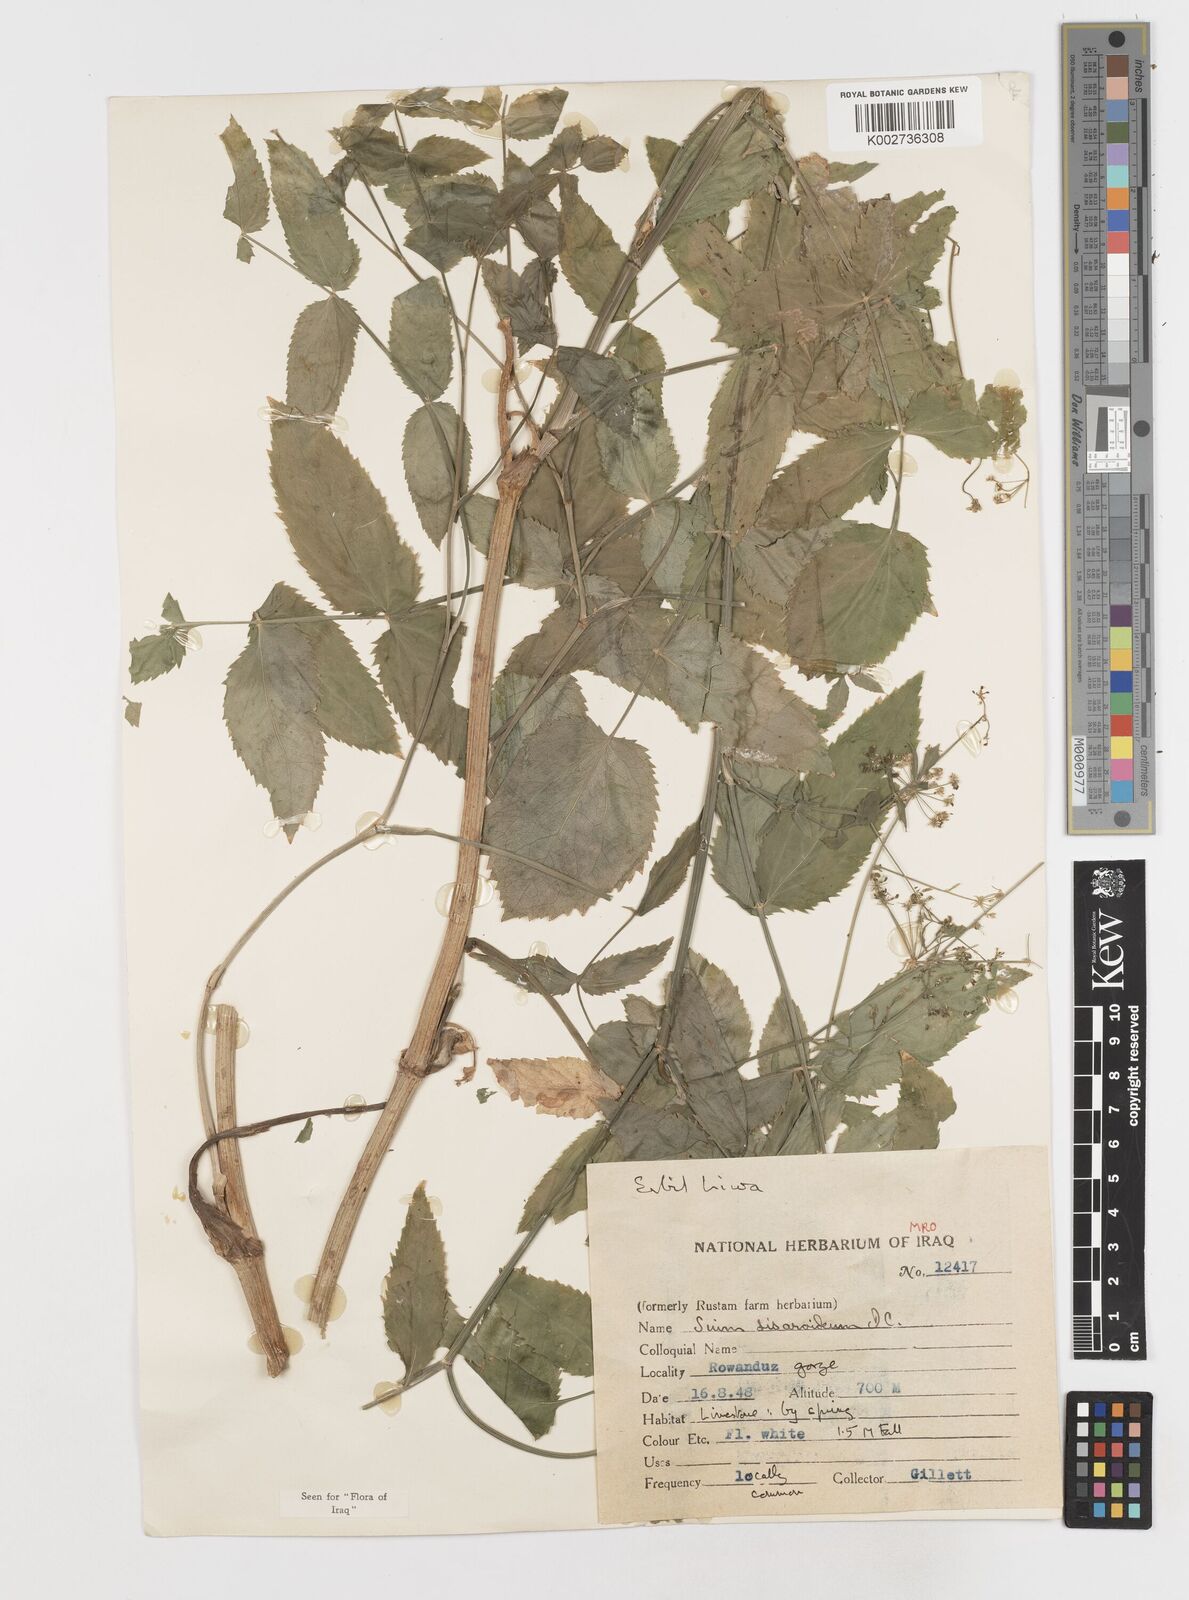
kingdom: Plantae
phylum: Tracheophyta
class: Magnoliopsida
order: Apiales
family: Apiaceae
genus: Sium
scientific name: Sium sisarum
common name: Skirret
